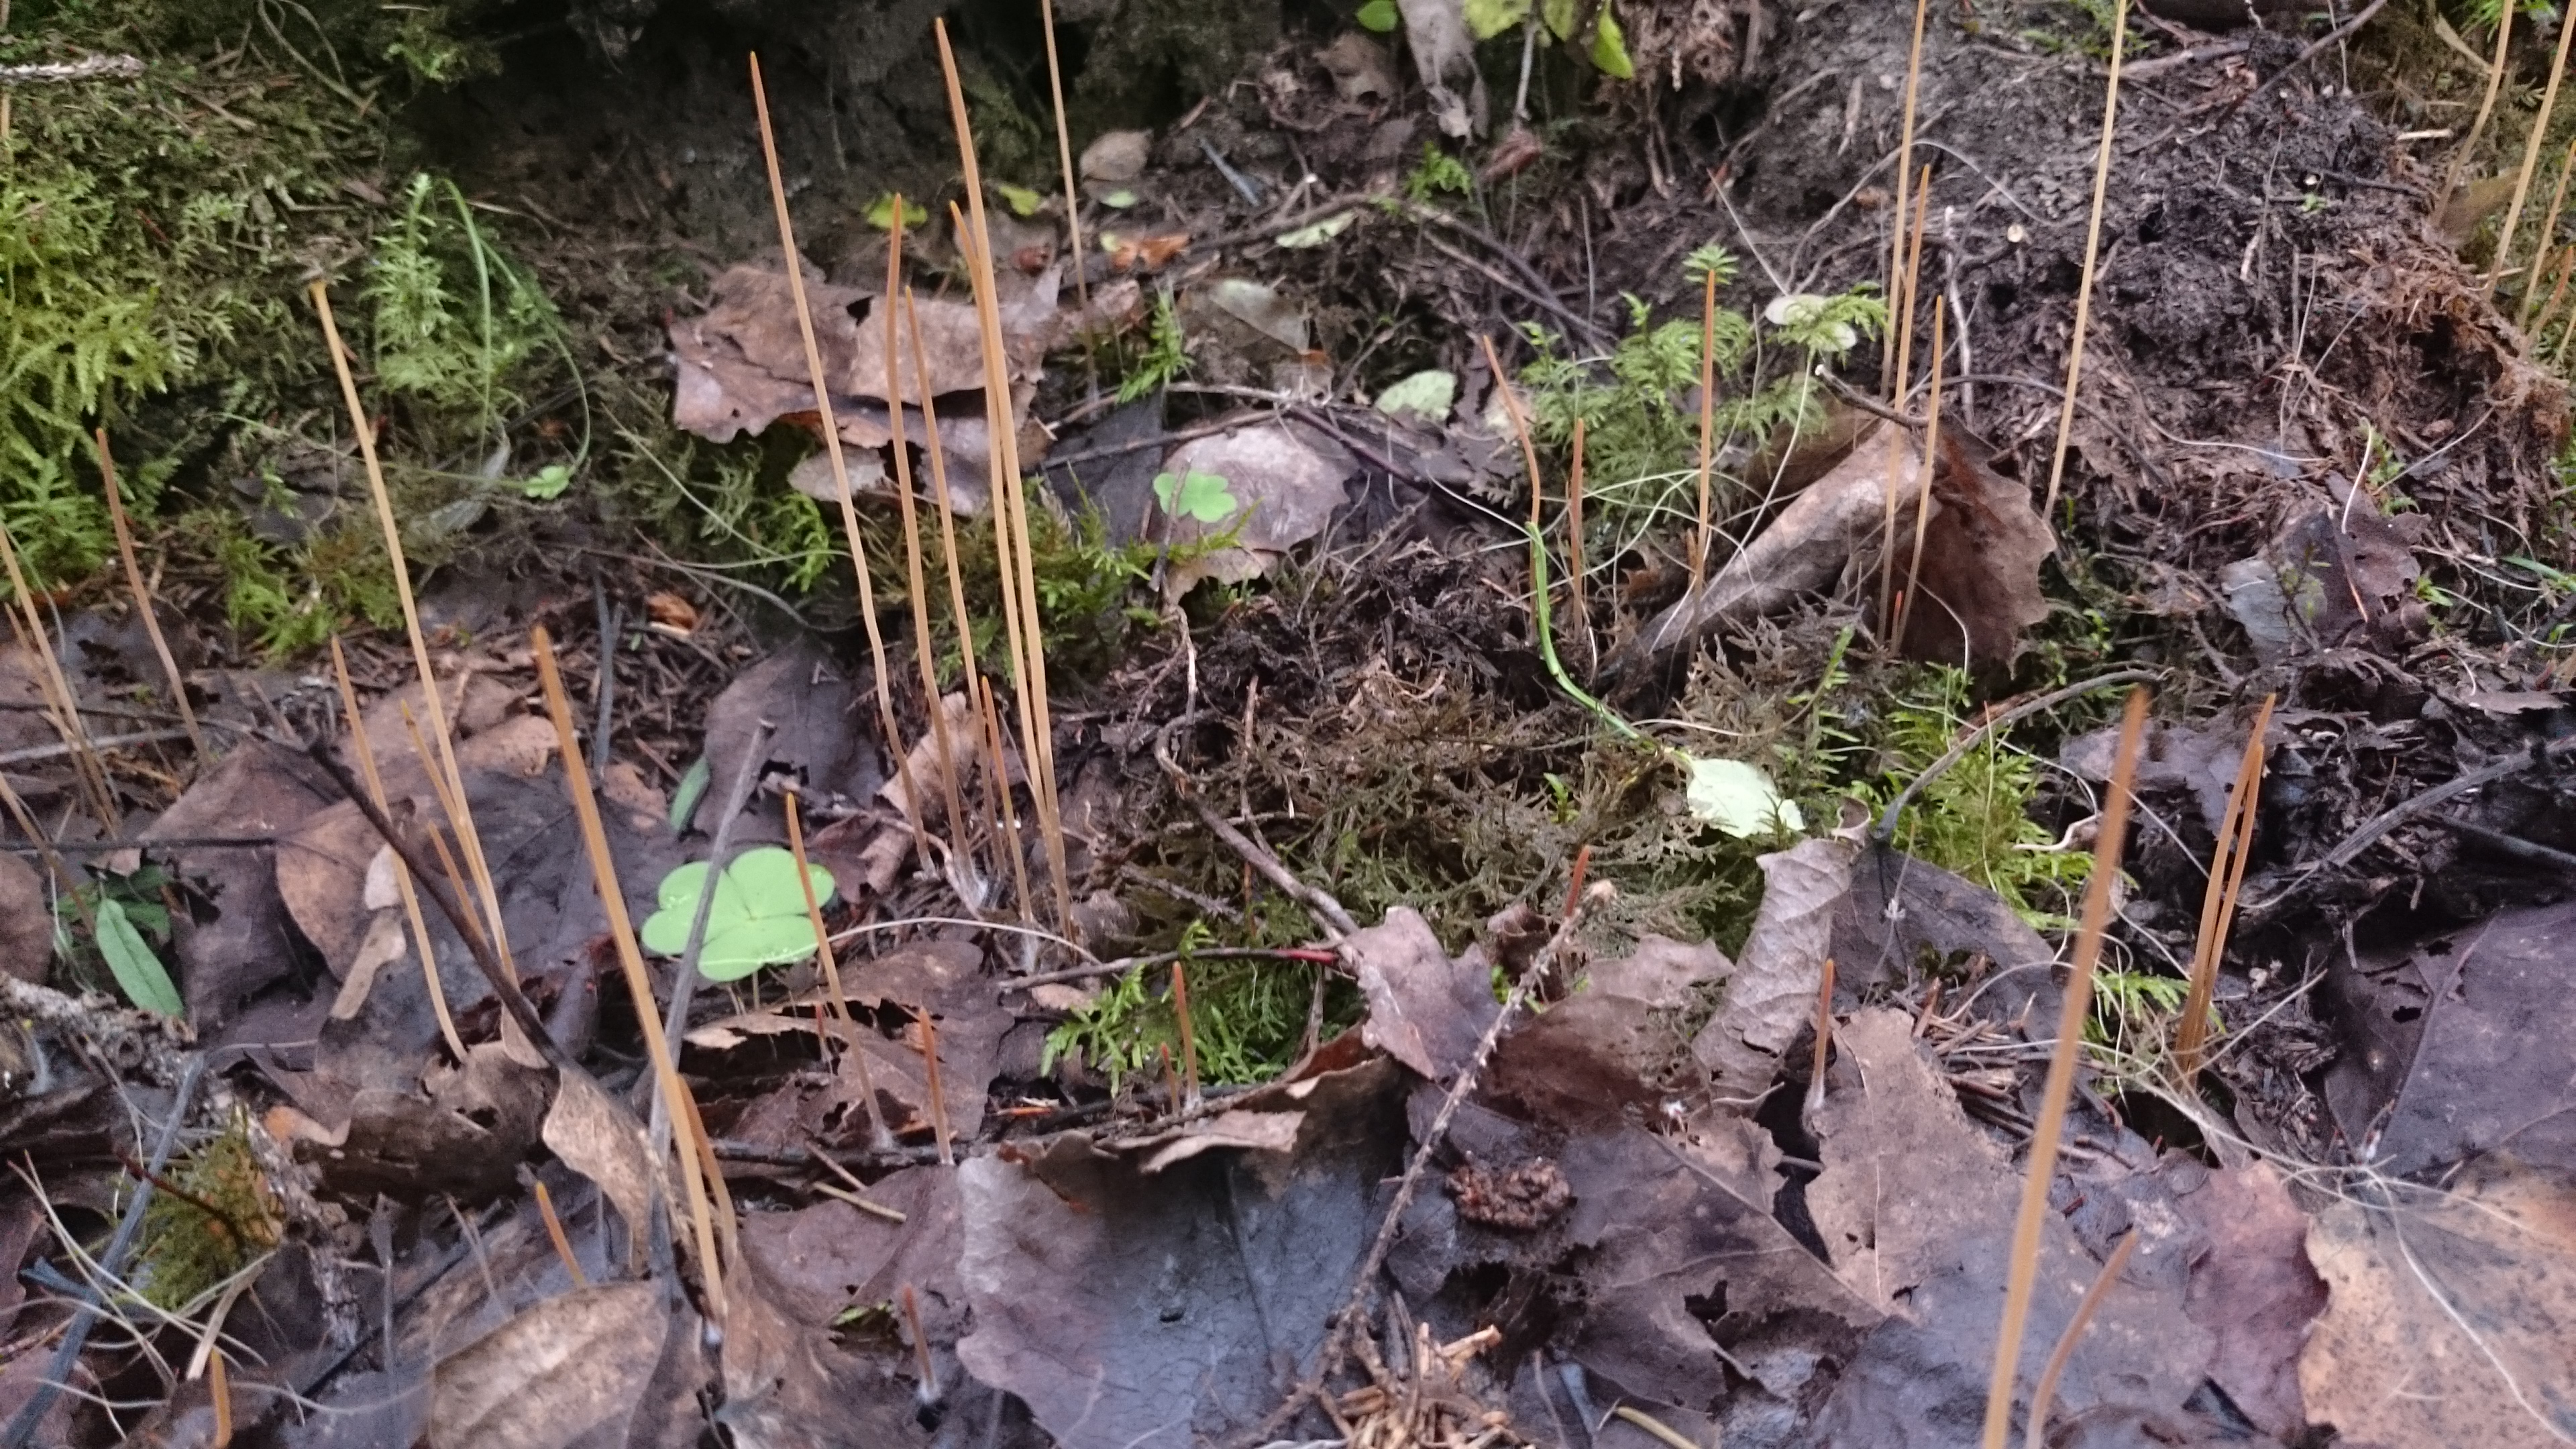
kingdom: Fungi
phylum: Basidiomycota
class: Agaricomycetes
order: Agaricales
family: Typhulaceae
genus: Typhula
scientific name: Typhula juncea
